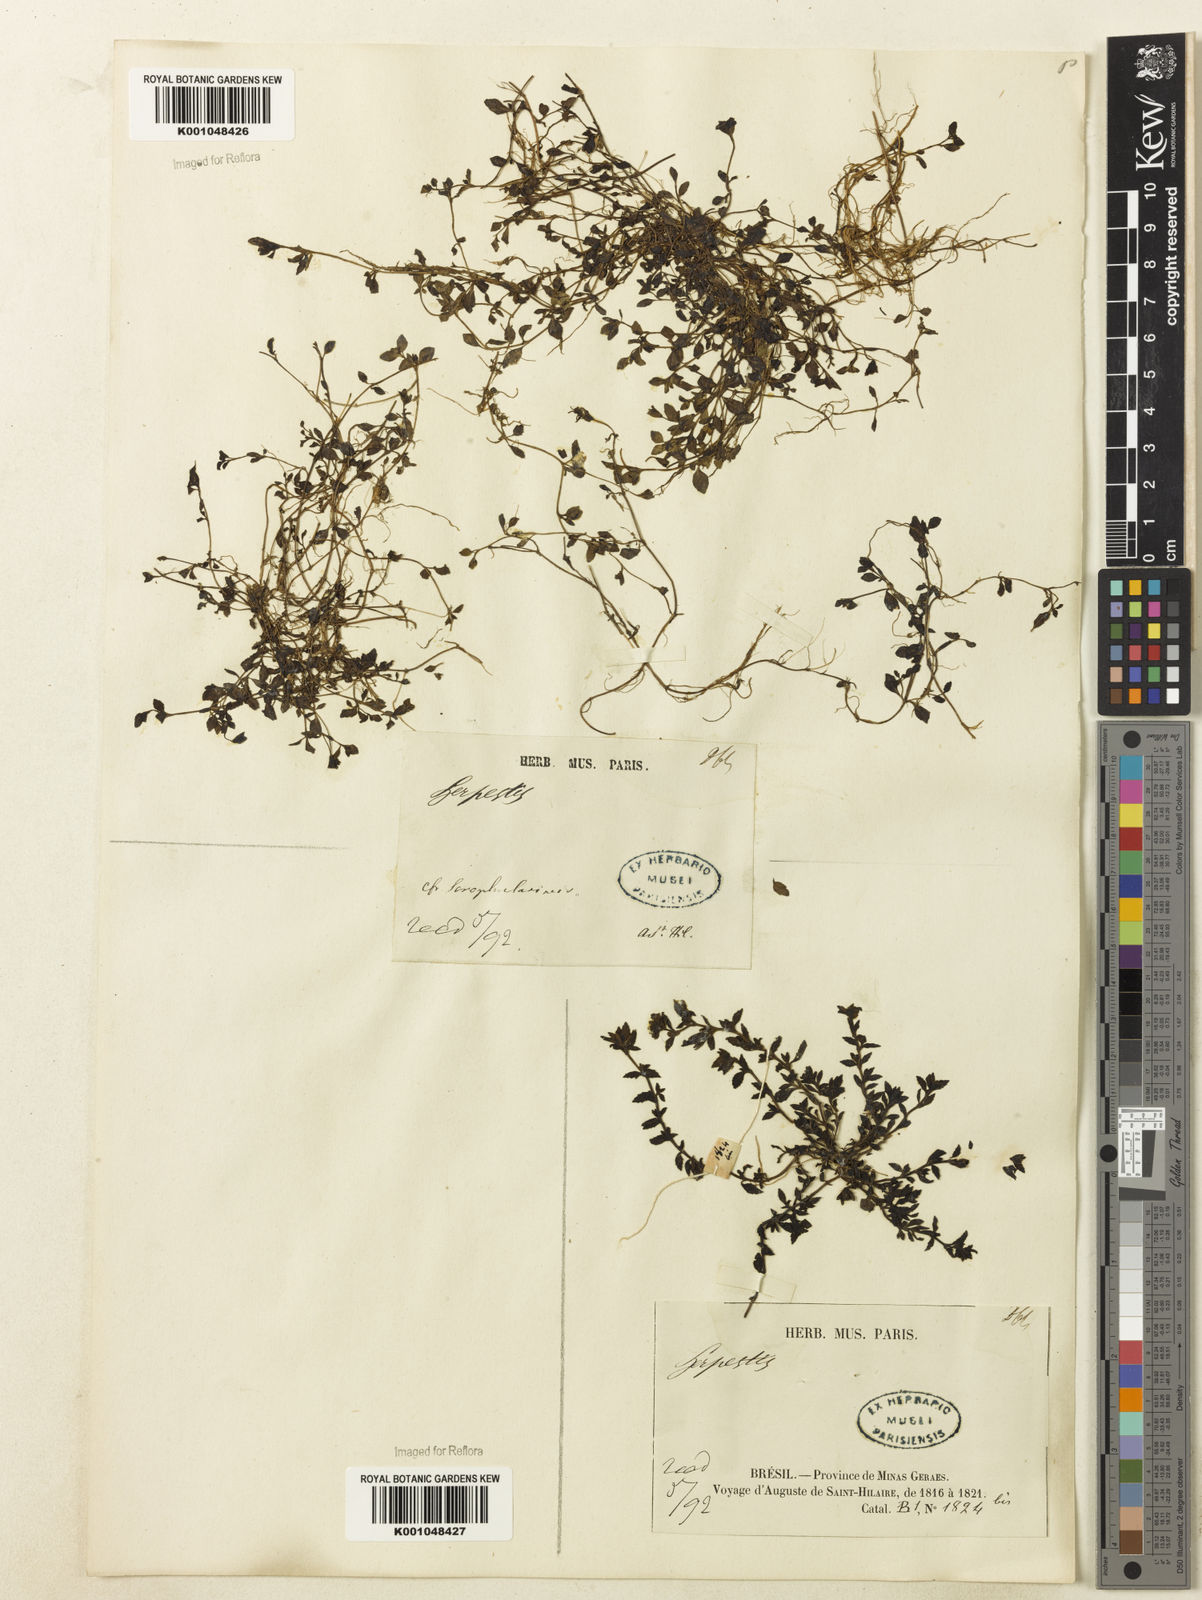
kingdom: Plantae
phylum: Tracheophyta
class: Magnoliopsida
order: Lamiales
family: Plantaginaceae
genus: Mecardonia
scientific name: Mecardonia flagellaris
